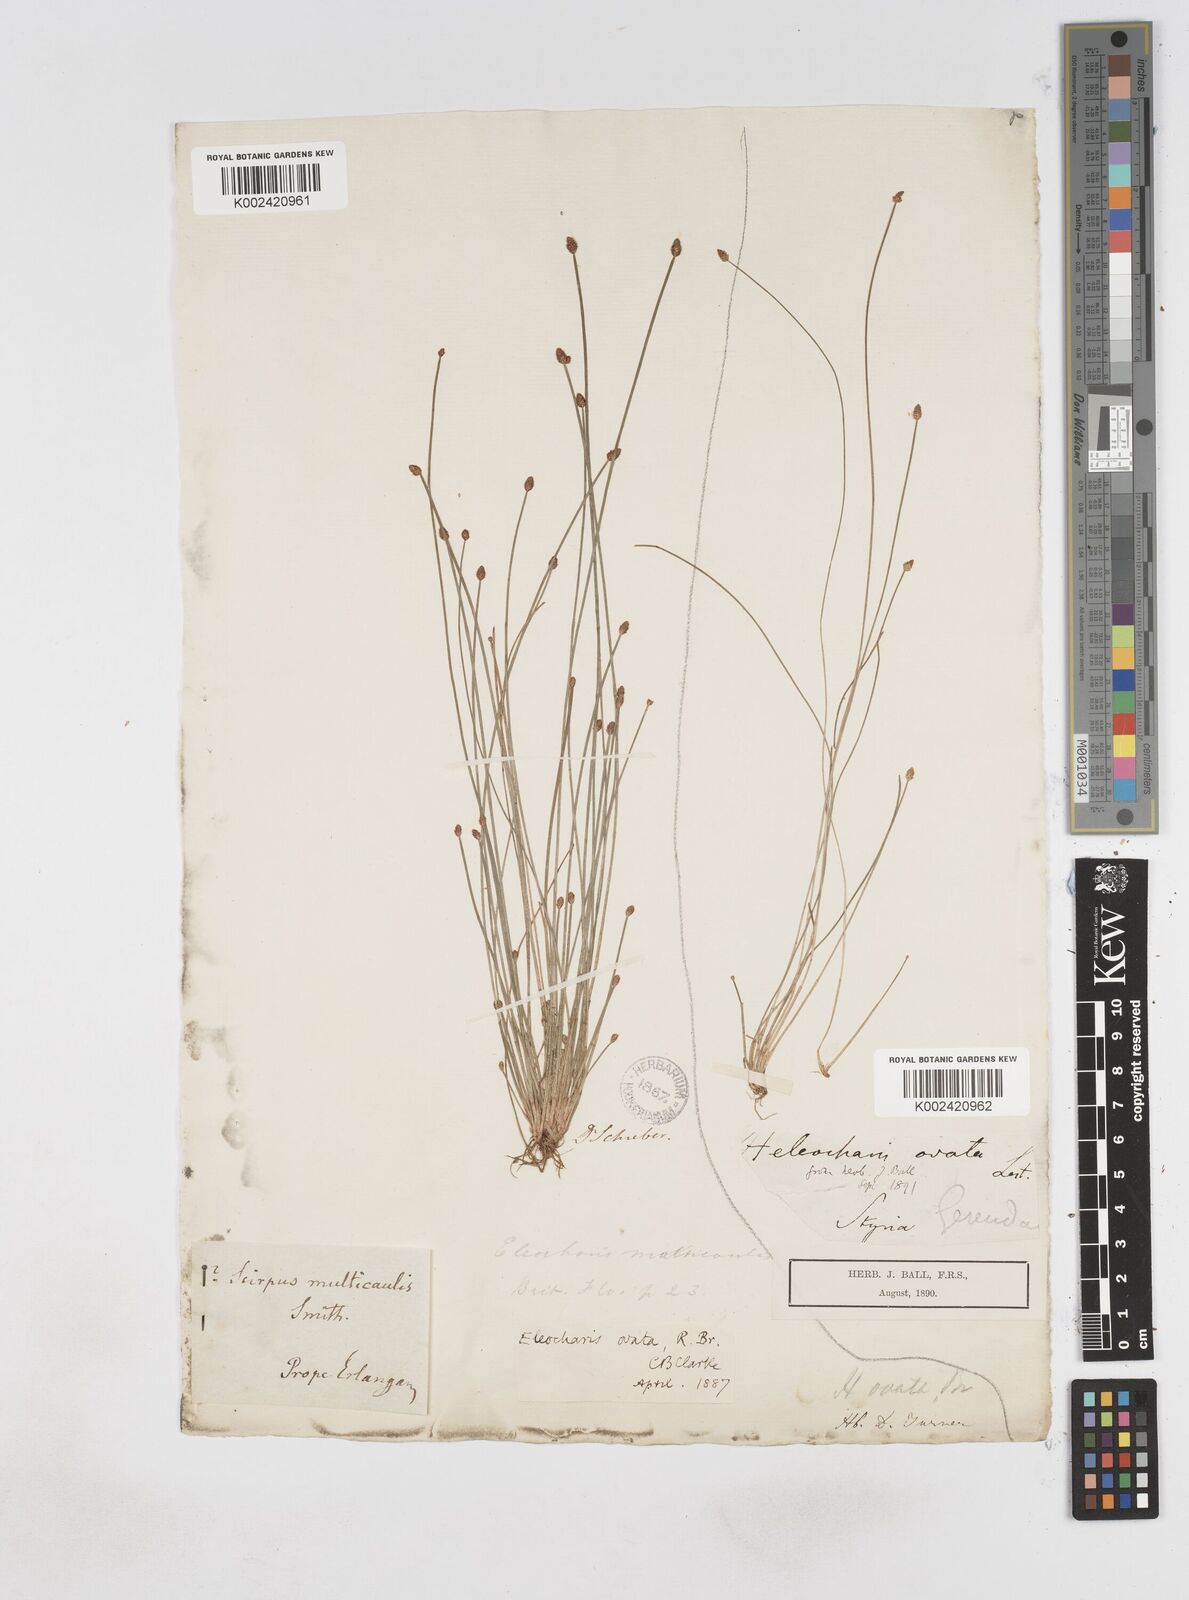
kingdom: Plantae
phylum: Tracheophyta
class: Liliopsida
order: Poales
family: Cyperaceae
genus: Eleocharis
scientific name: Eleocharis ovata
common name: Oval spike-rush
